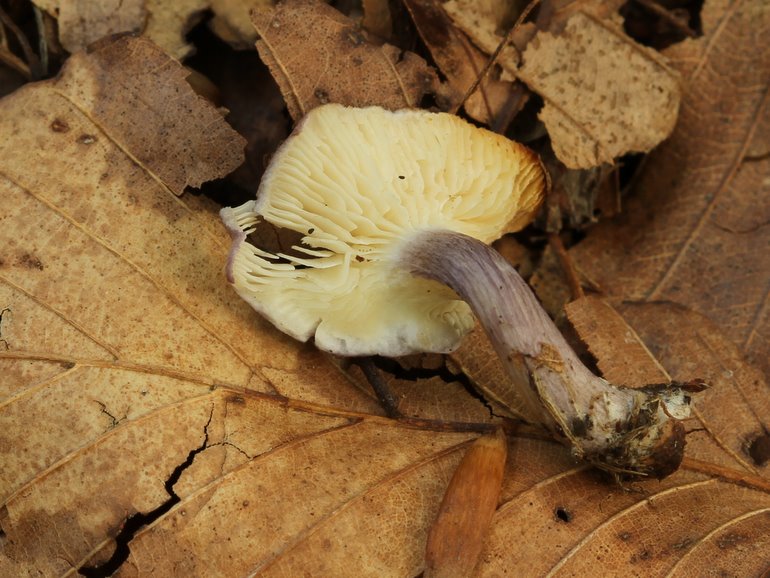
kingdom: Fungi
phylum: Basidiomycota
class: Agaricomycetes
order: Agaricales
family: Lyophyllaceae
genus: Calocybe
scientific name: Calocybe ionides
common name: violblå fagerhat
